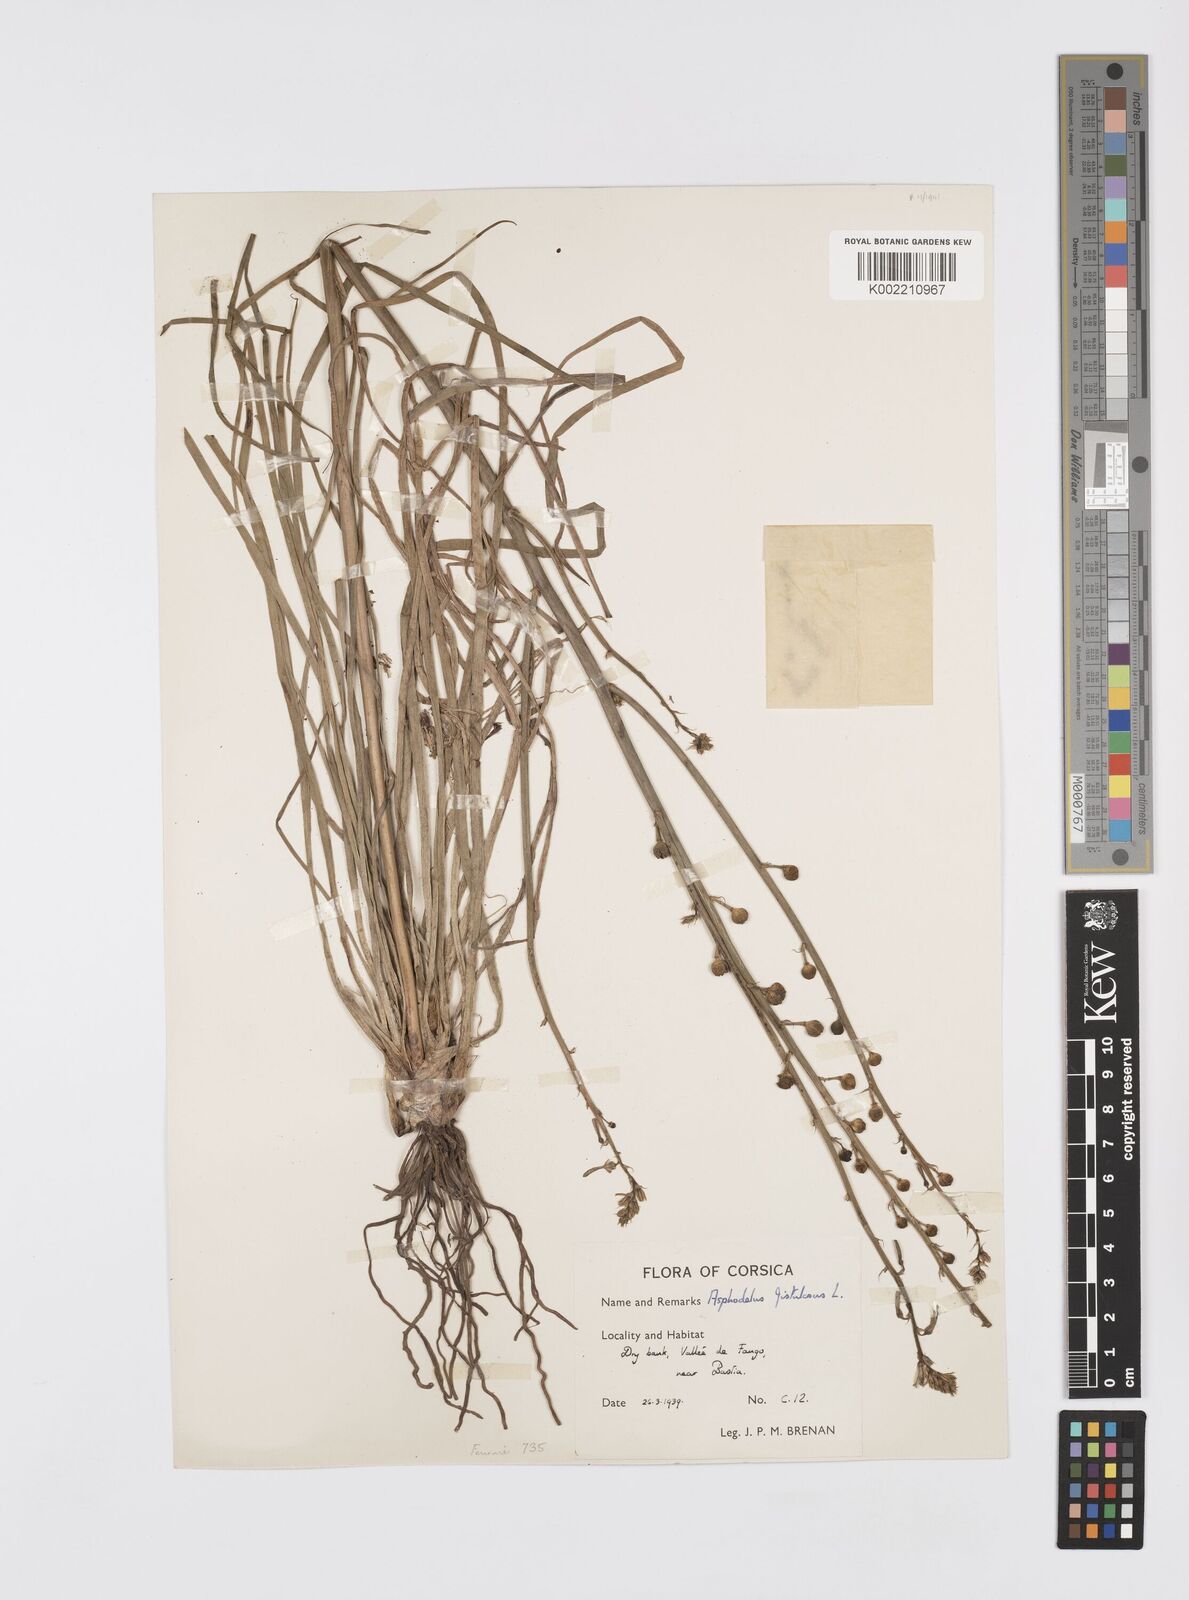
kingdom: Plantae
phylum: Tracheophyta
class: Liliopsida
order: Asparagales
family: Asphodelaceae
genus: Asphodelus
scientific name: Asphodelus fistulosus
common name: Onionweed
